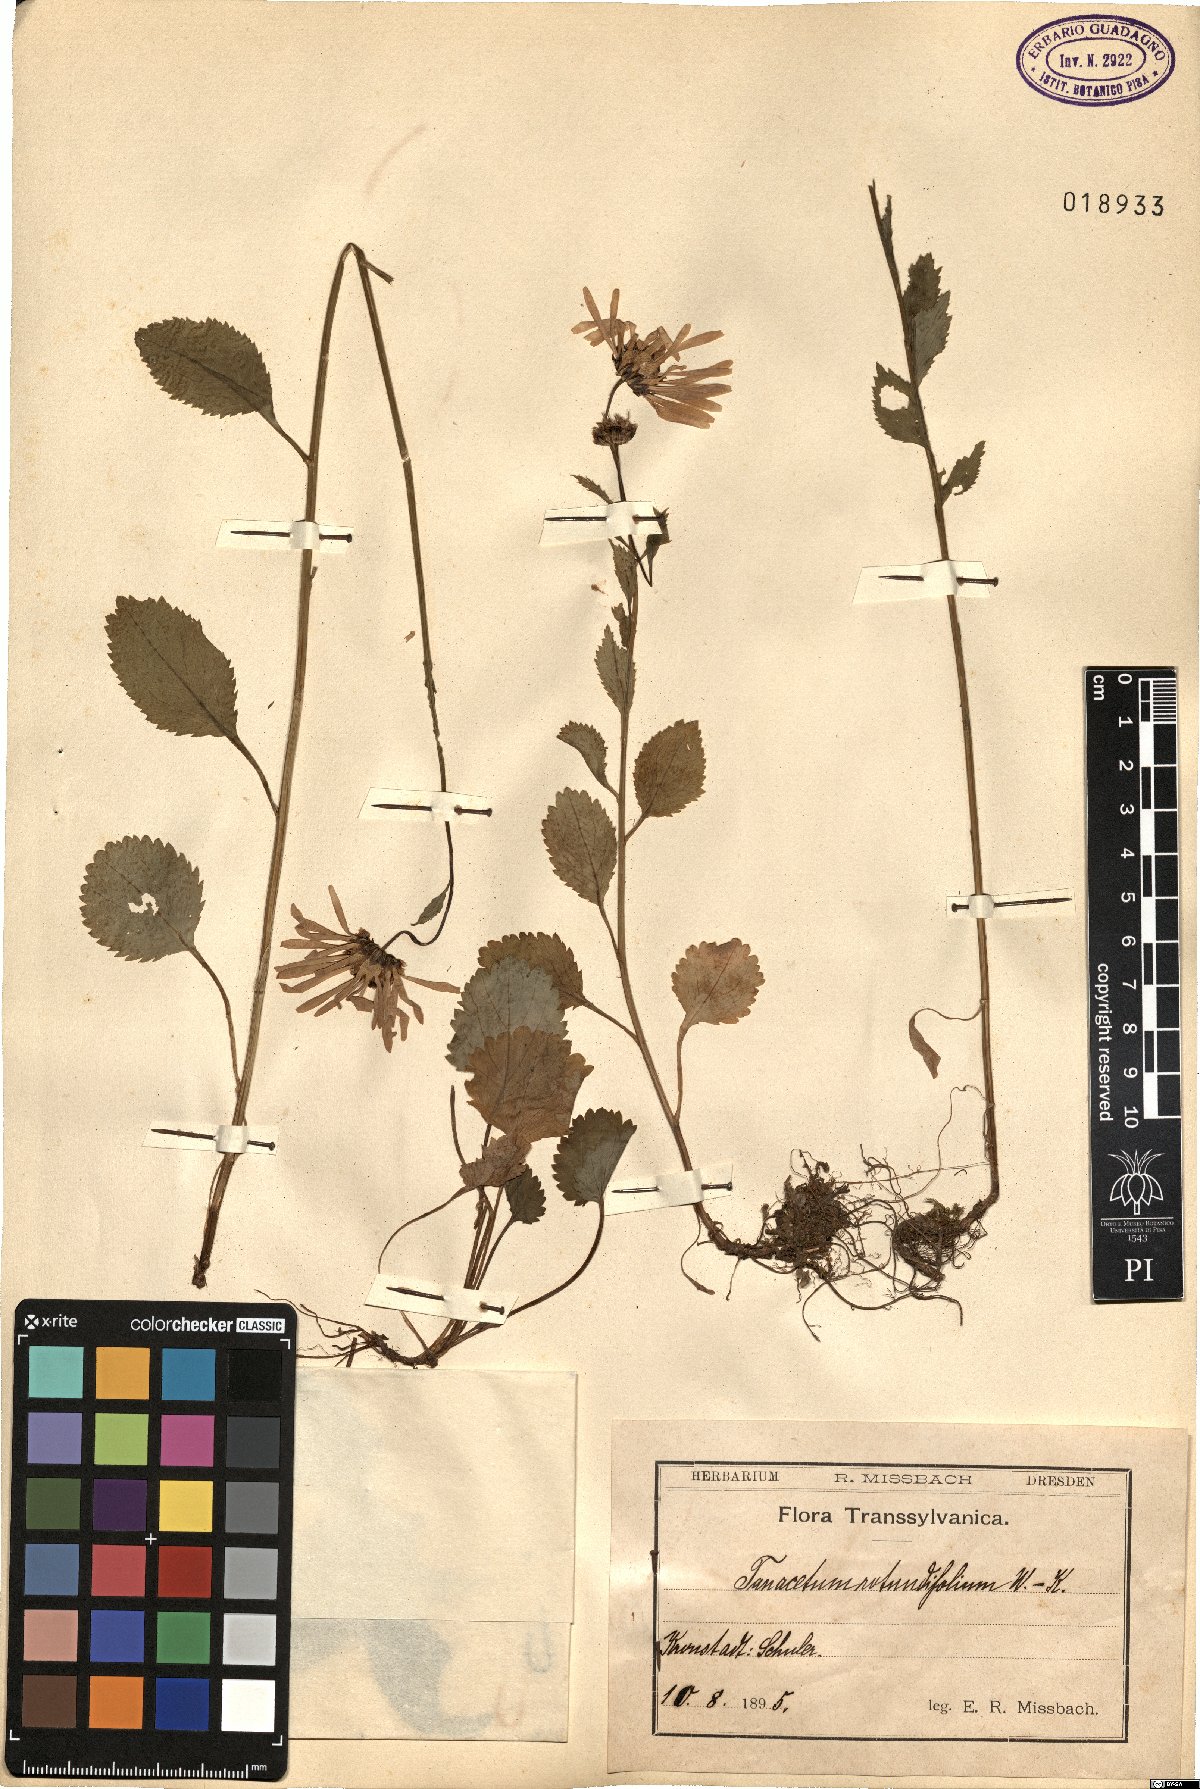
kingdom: Plantae
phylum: Tracheophyta
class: Magnoliopsida
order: Asterales
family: Asteraceae
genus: Leucanthemum
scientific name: Leucanthemum rotundifolium
